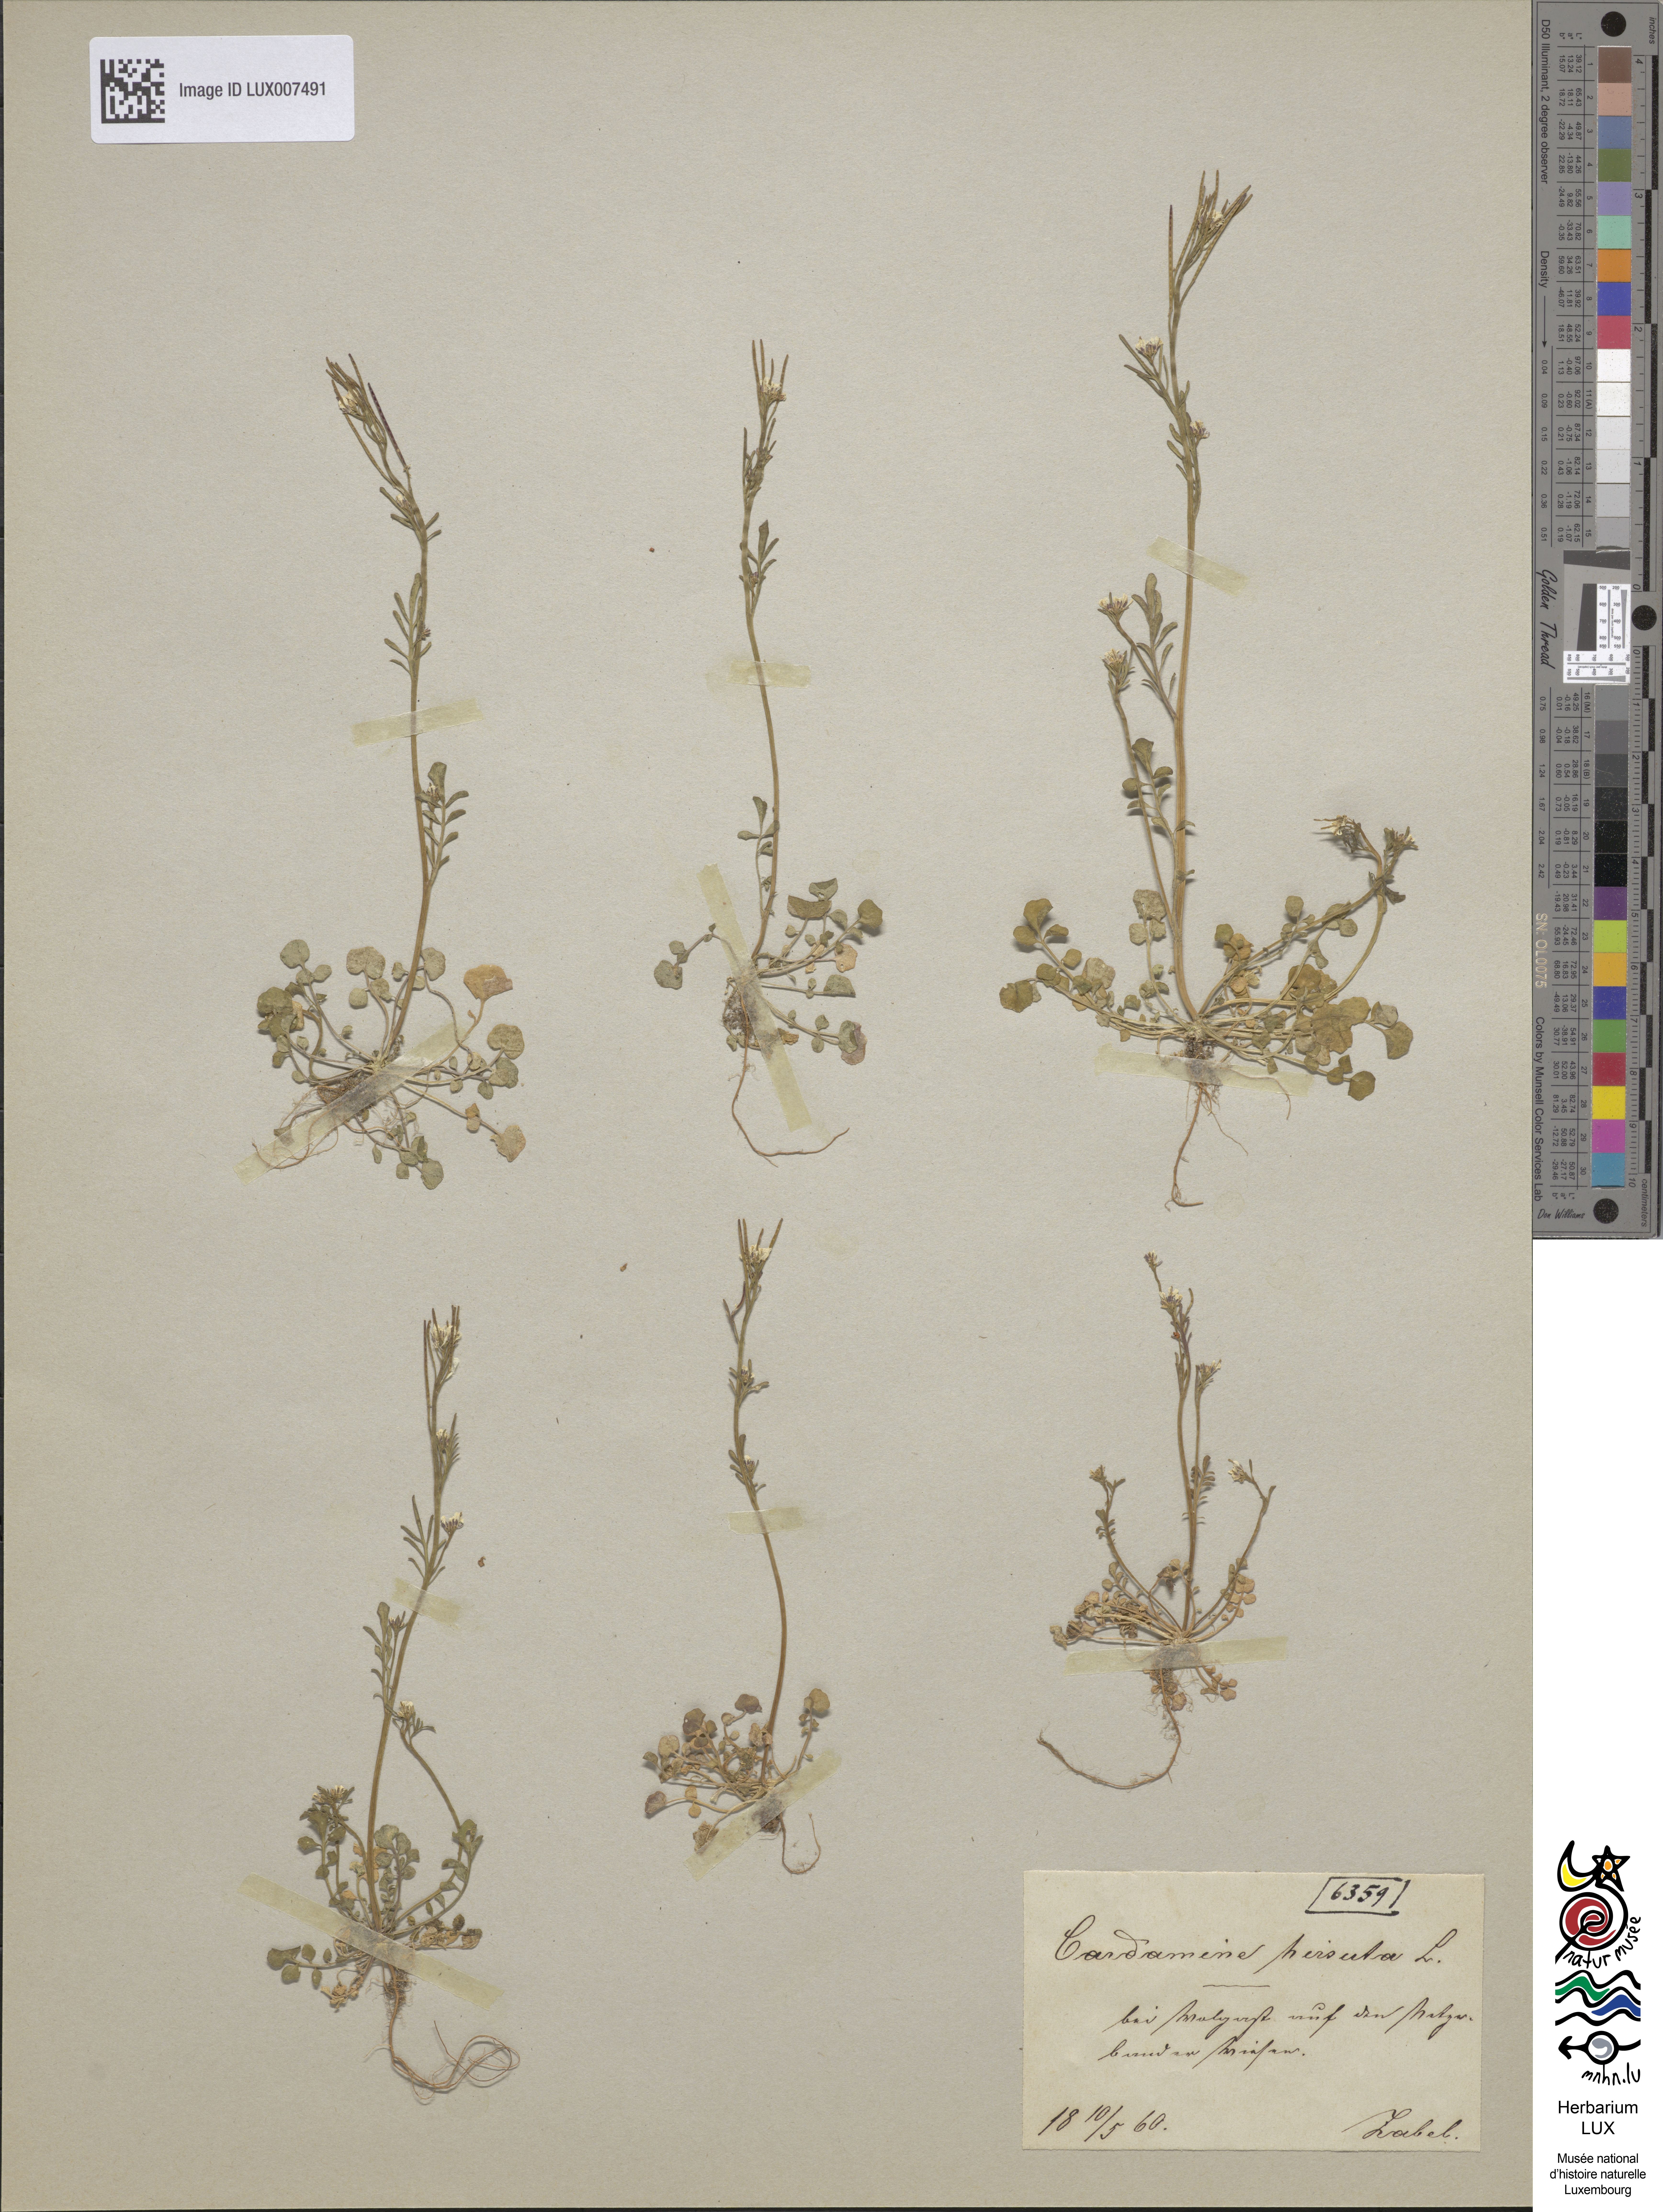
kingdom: Plantae
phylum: Tracheophyta
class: Magnoliopsida
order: Brassicales
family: Brassicaceae
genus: Cardamine
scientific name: Cardamine hirsuta
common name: Hairy bittercress
